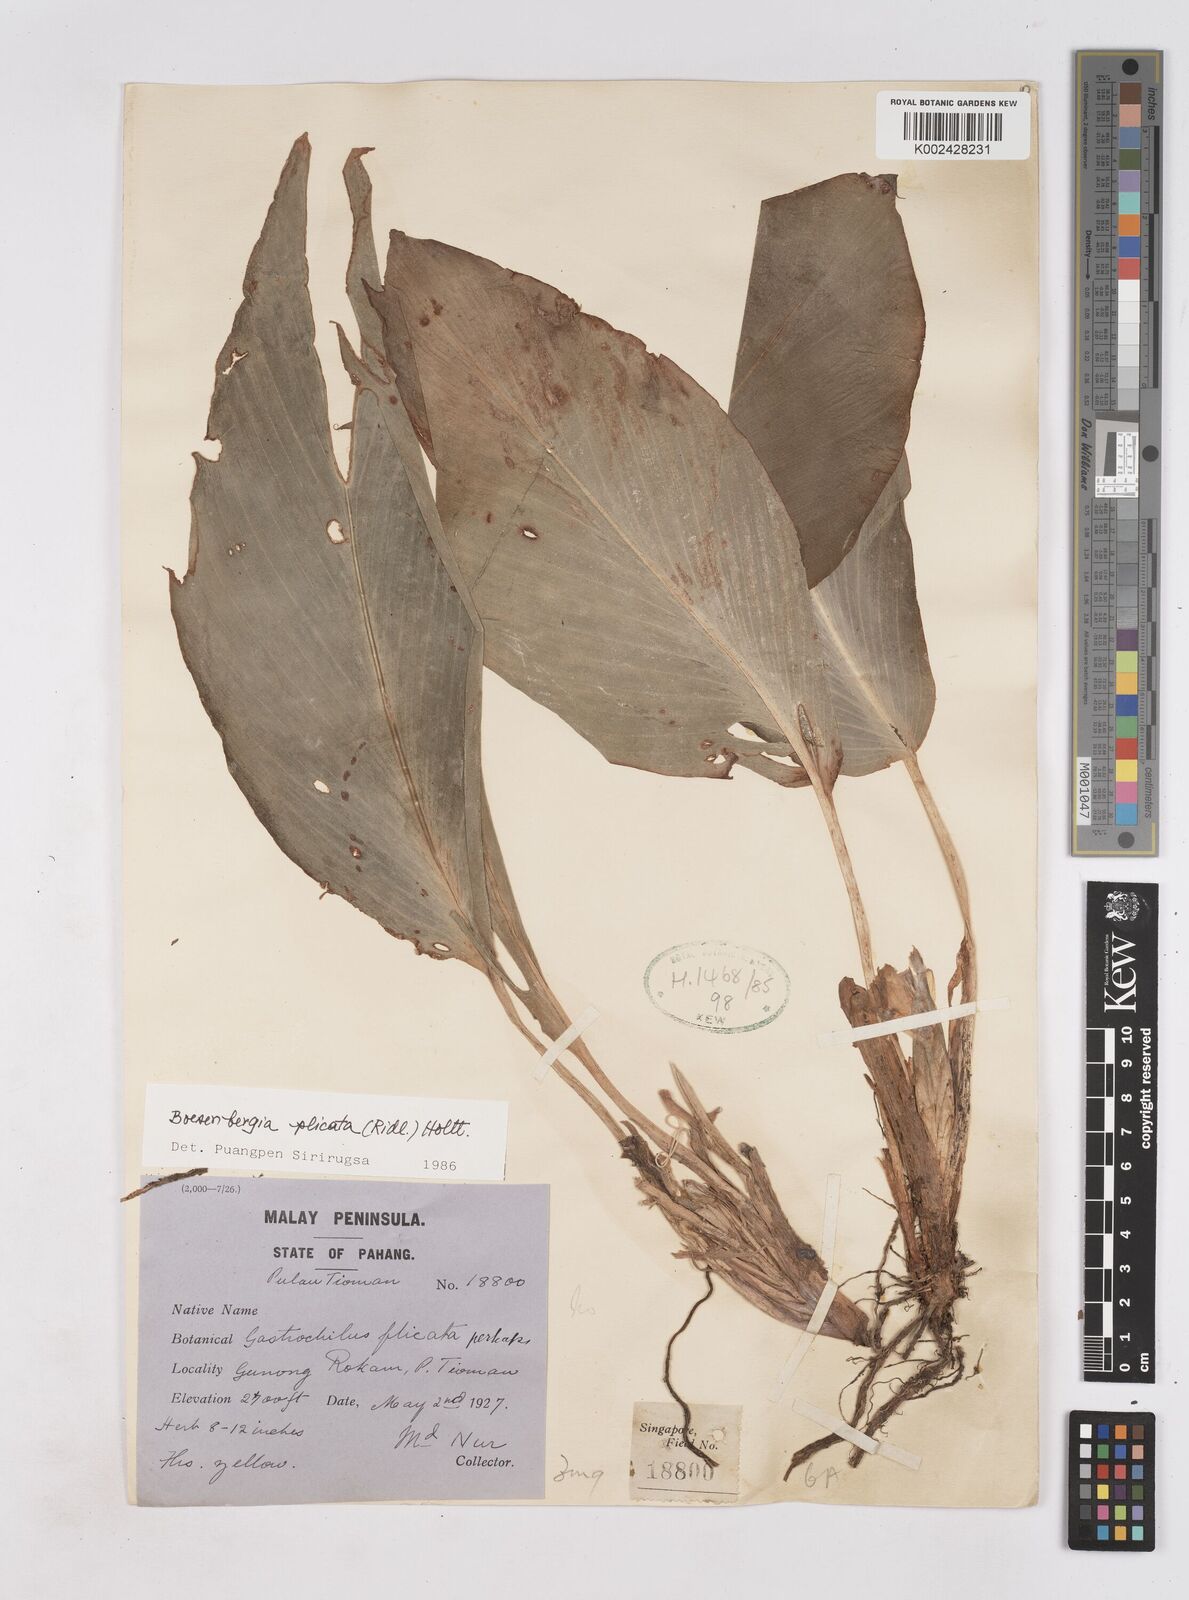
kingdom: Plantae
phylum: Tracheophyta
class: Liliopsida
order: Zingiberales
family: Zingiberaceae
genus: Boesenbergia
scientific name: Boesenbergia plicata
